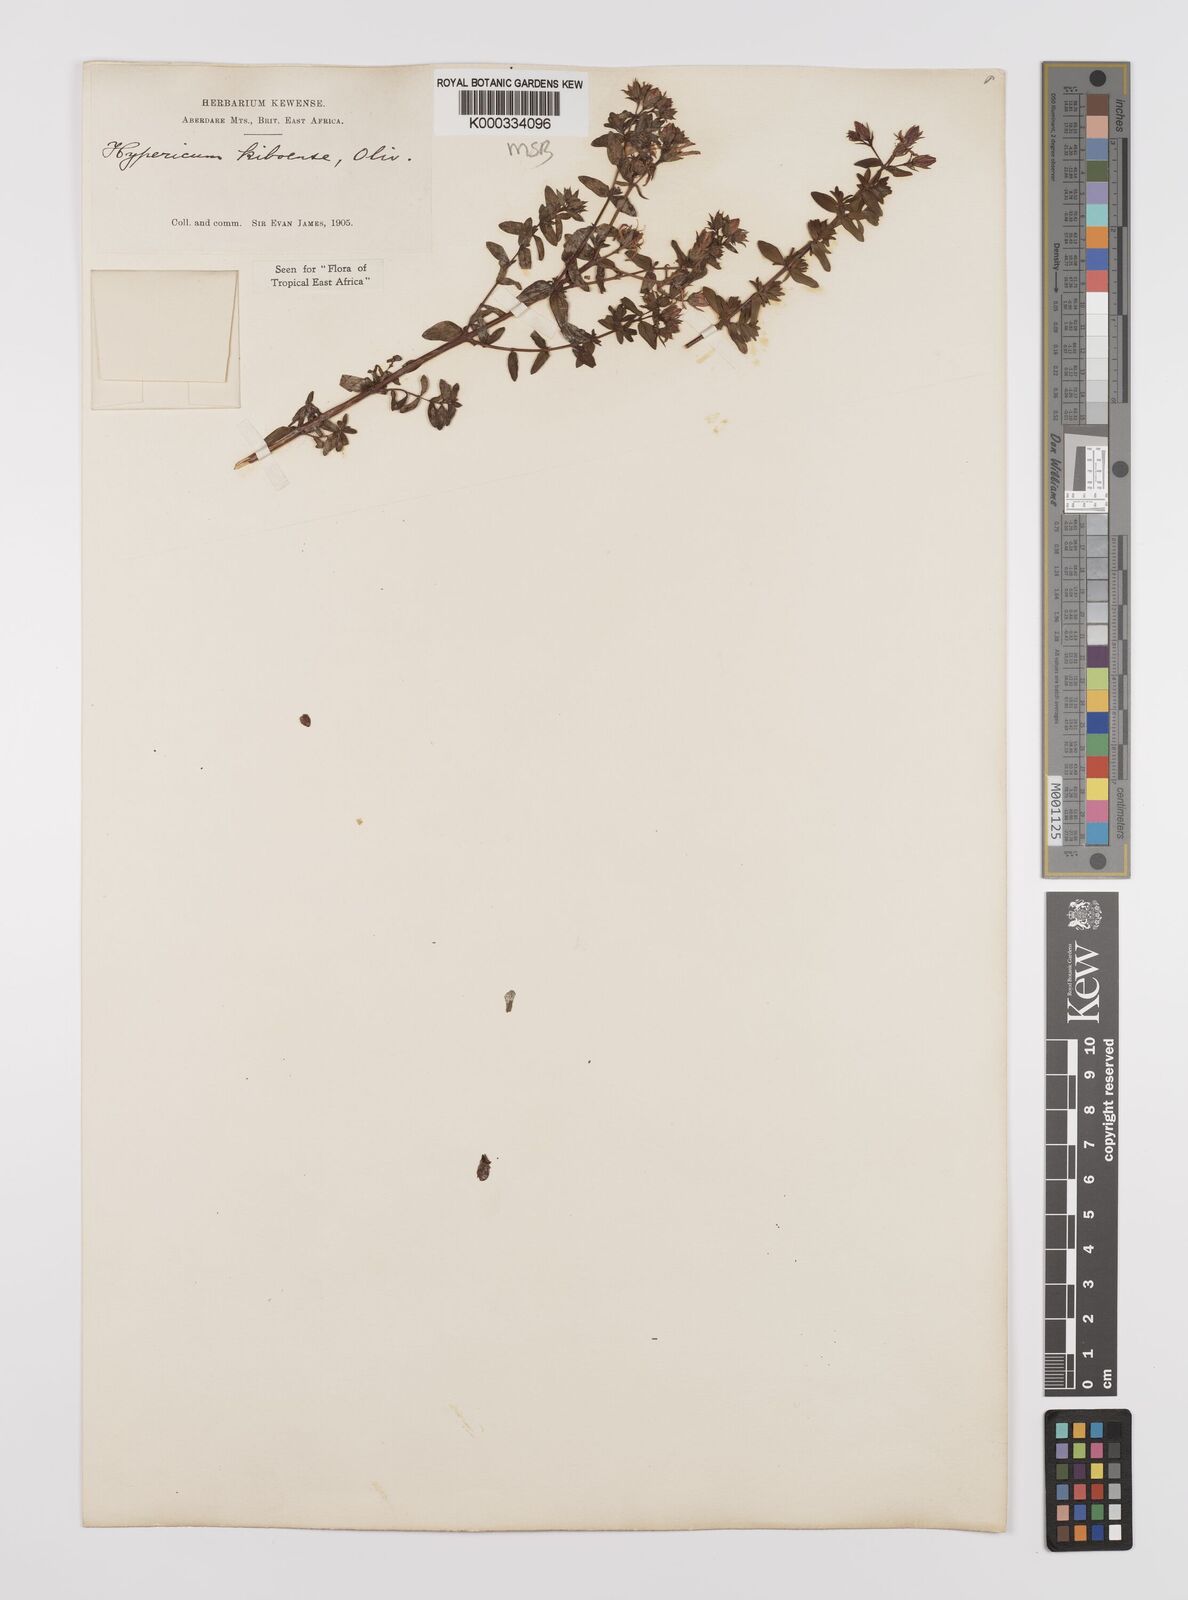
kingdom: Plantae
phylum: Tracheophyta
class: Magnoliopsida
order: Malpighiales
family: Hypericaceae
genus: Hypericum
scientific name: Hypericum kiboense
